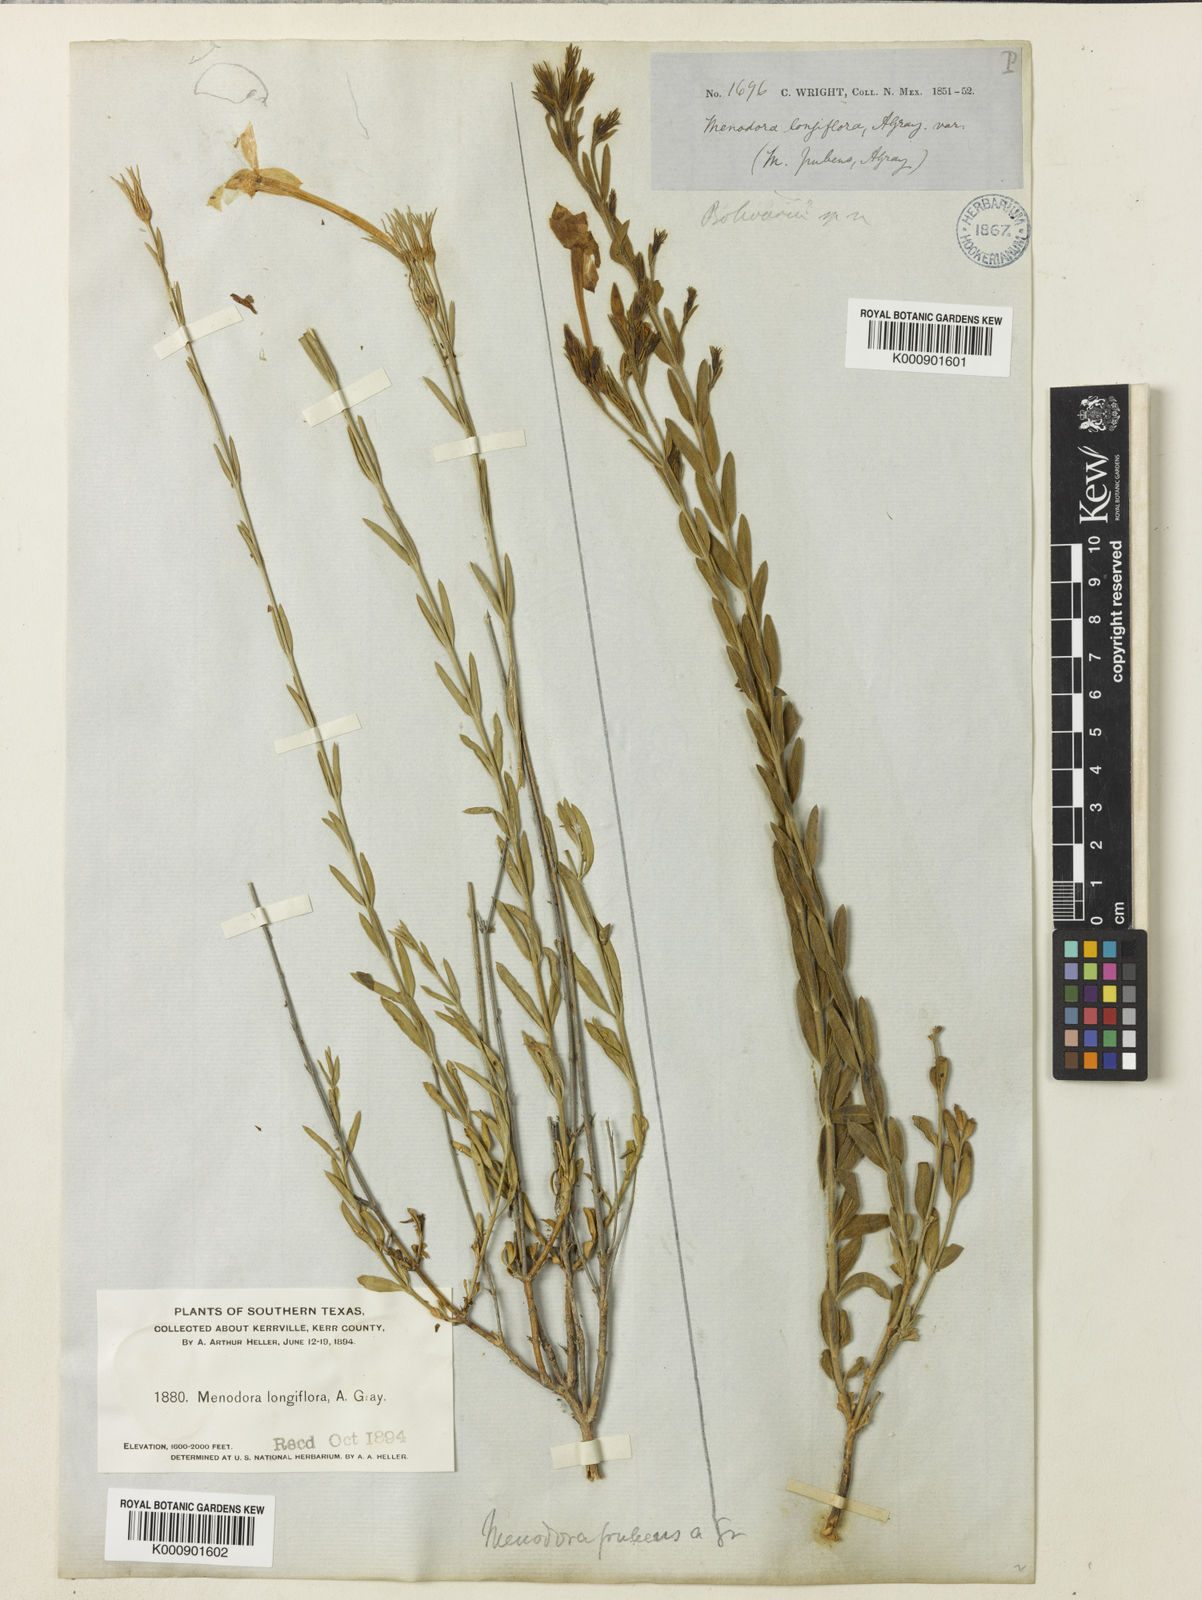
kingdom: Plantae
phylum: Tracheophyta
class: Magnoliopsida
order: Lamiales
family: Oleaceae
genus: Menodora
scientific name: Menodora longiflora
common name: Showy menodora
